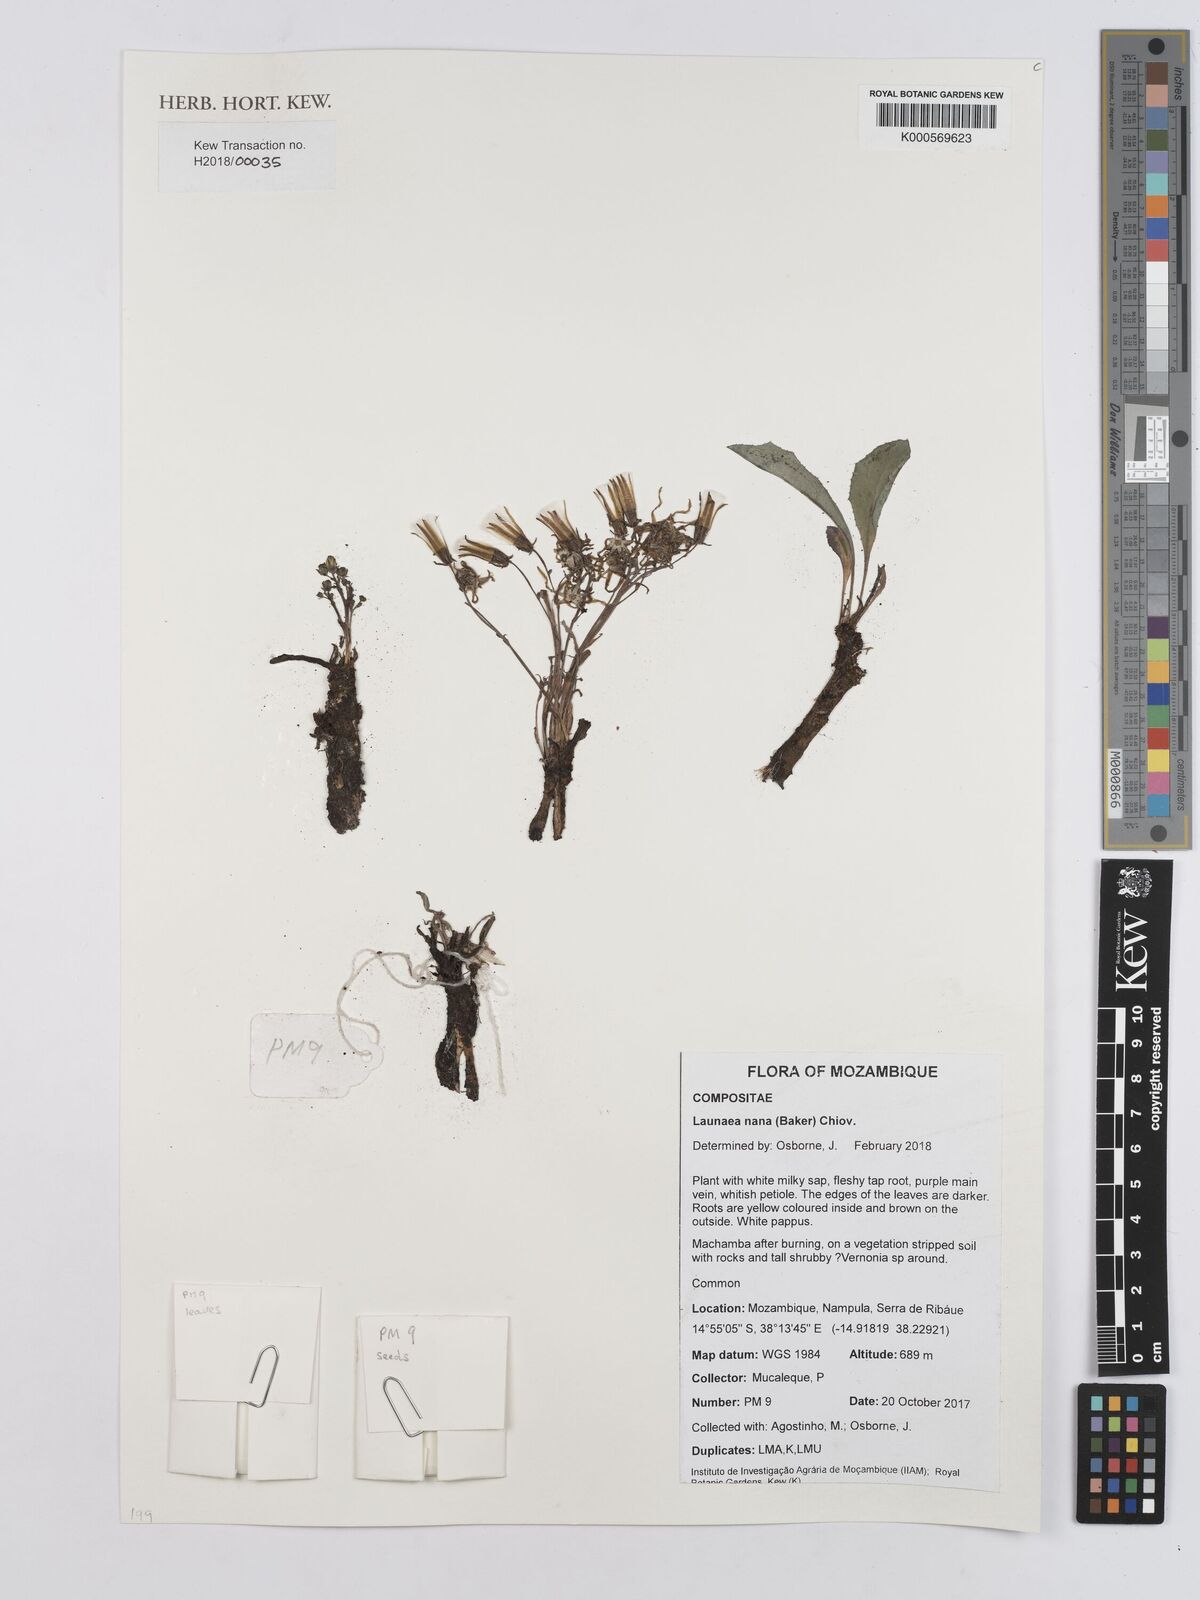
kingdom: Plantae
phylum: Tracheophyta
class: Magnoliopsida
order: Asterales
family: Asteraceae
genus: Launaea
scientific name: Launaea nana
